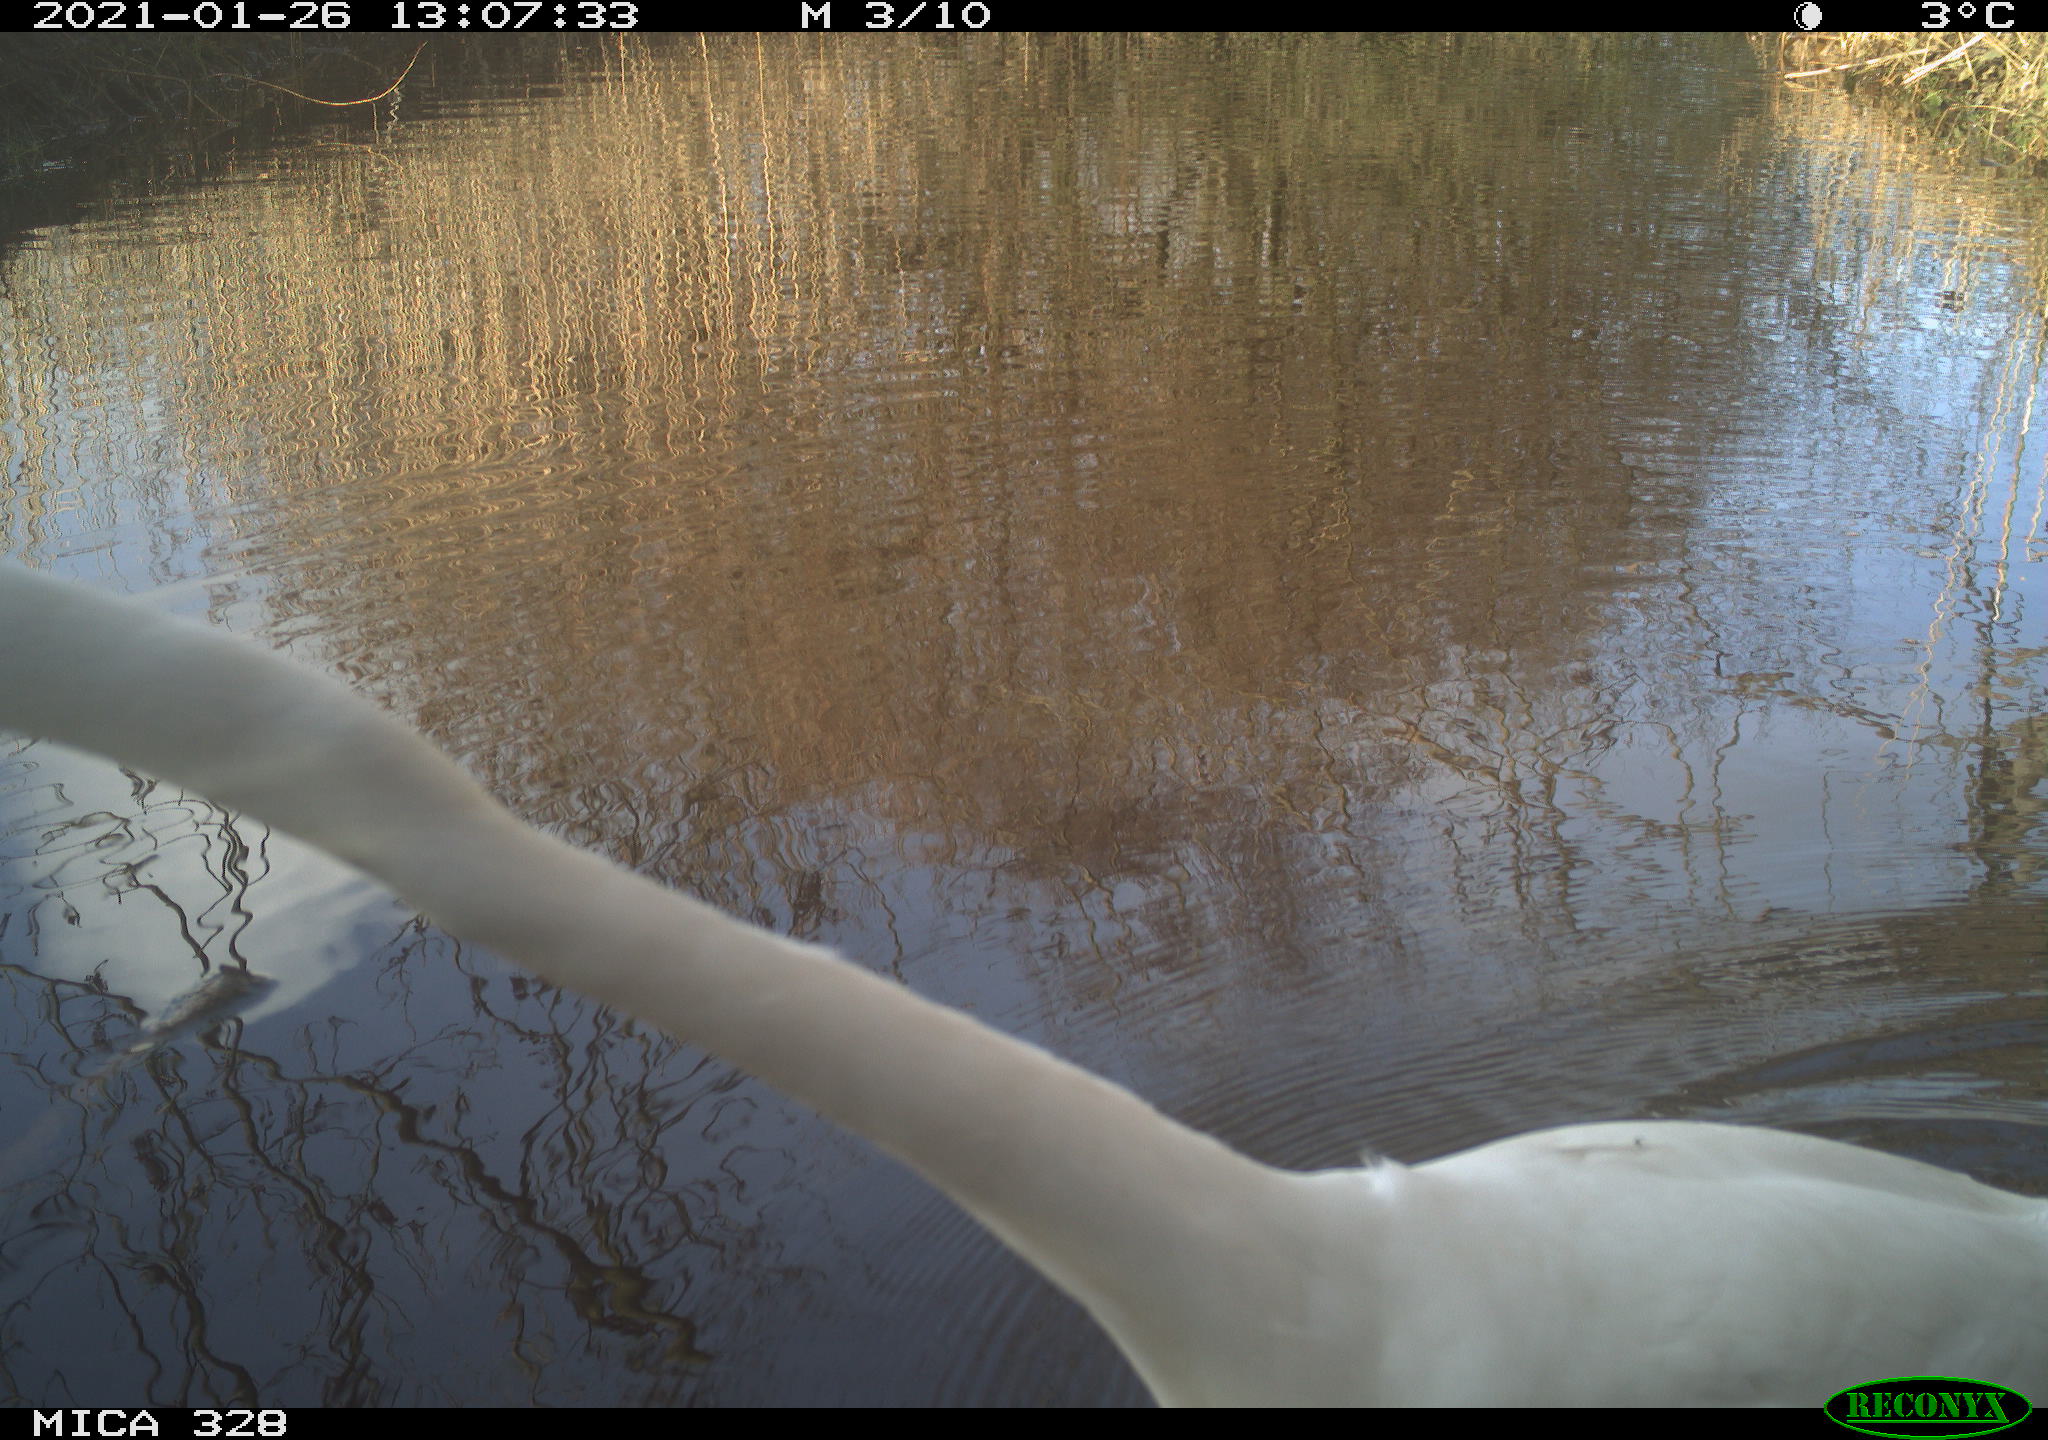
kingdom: Animalia
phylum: Chordata
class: Aves
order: Pelecaniformes
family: Ardeidae
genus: Ardea
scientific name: Ardea alba
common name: Great egret
